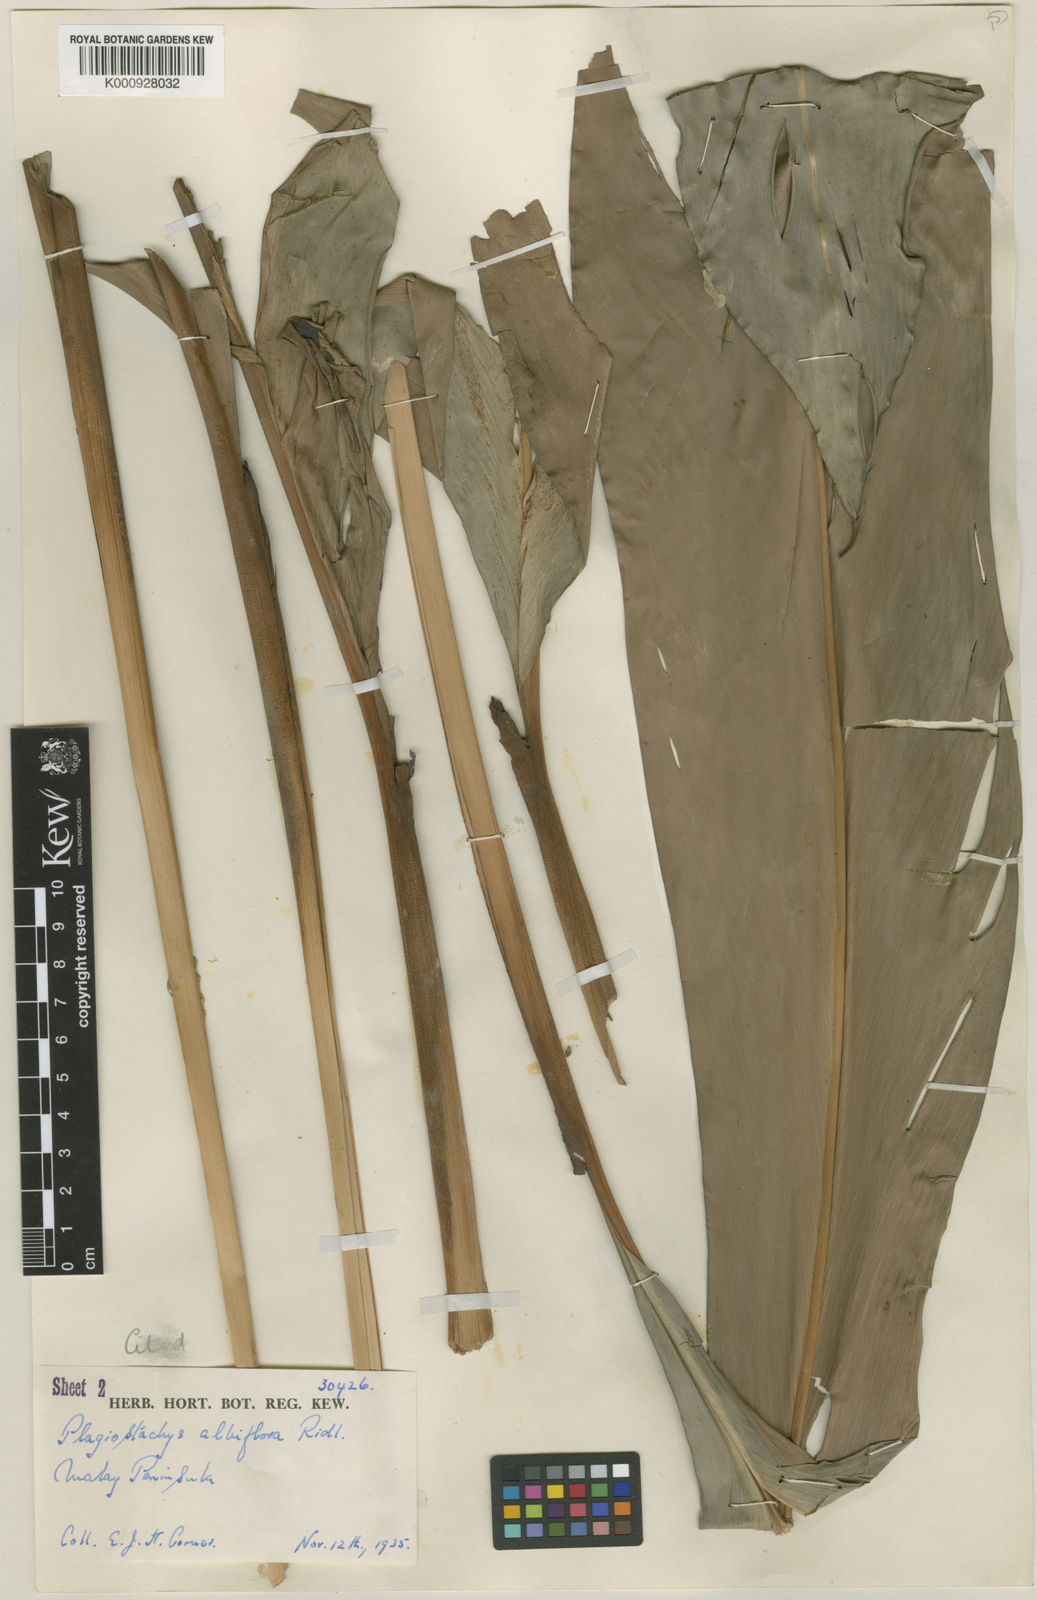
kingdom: Plantae
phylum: Tracheophyta
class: Liliopsida
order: Zingiberales
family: Zingiberaceae
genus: Plagiostachys
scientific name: Plagiostachys albiflora
